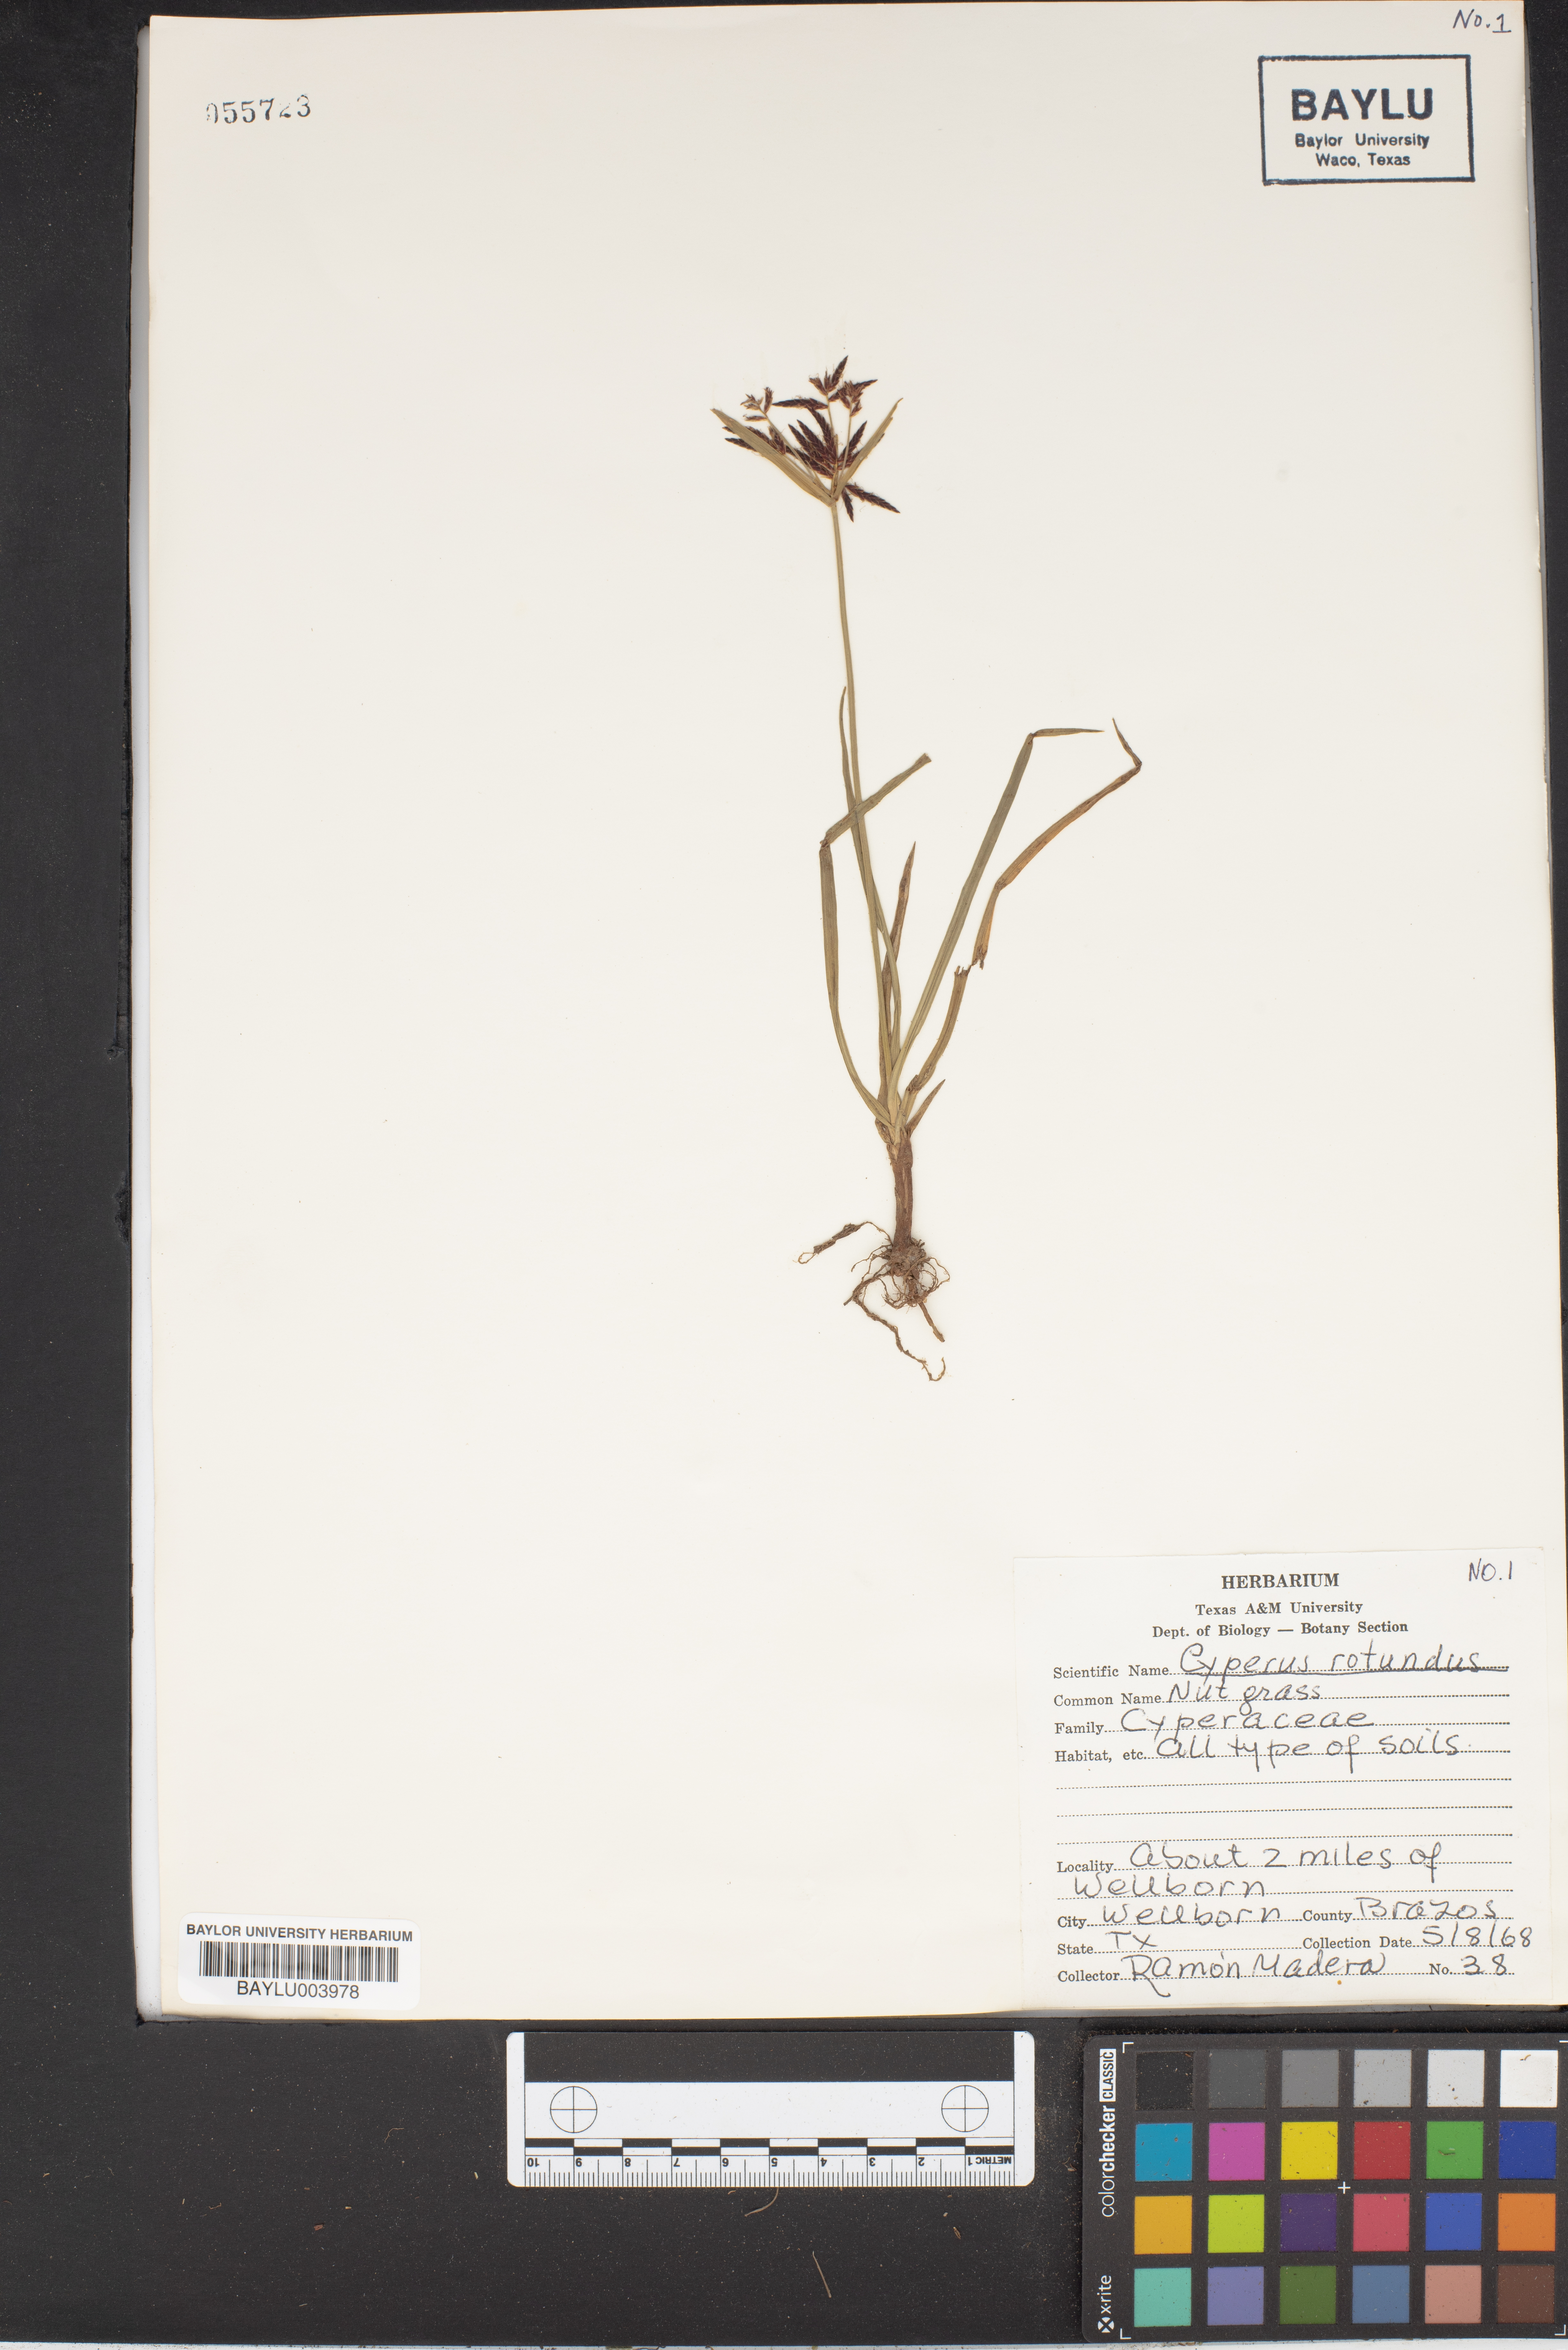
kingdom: Plantae
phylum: Tracheophyta
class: Liliopsida
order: Poales
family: Cyperaceae
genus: Cyperus
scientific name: Cyperus rotundus
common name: Nutgrass
